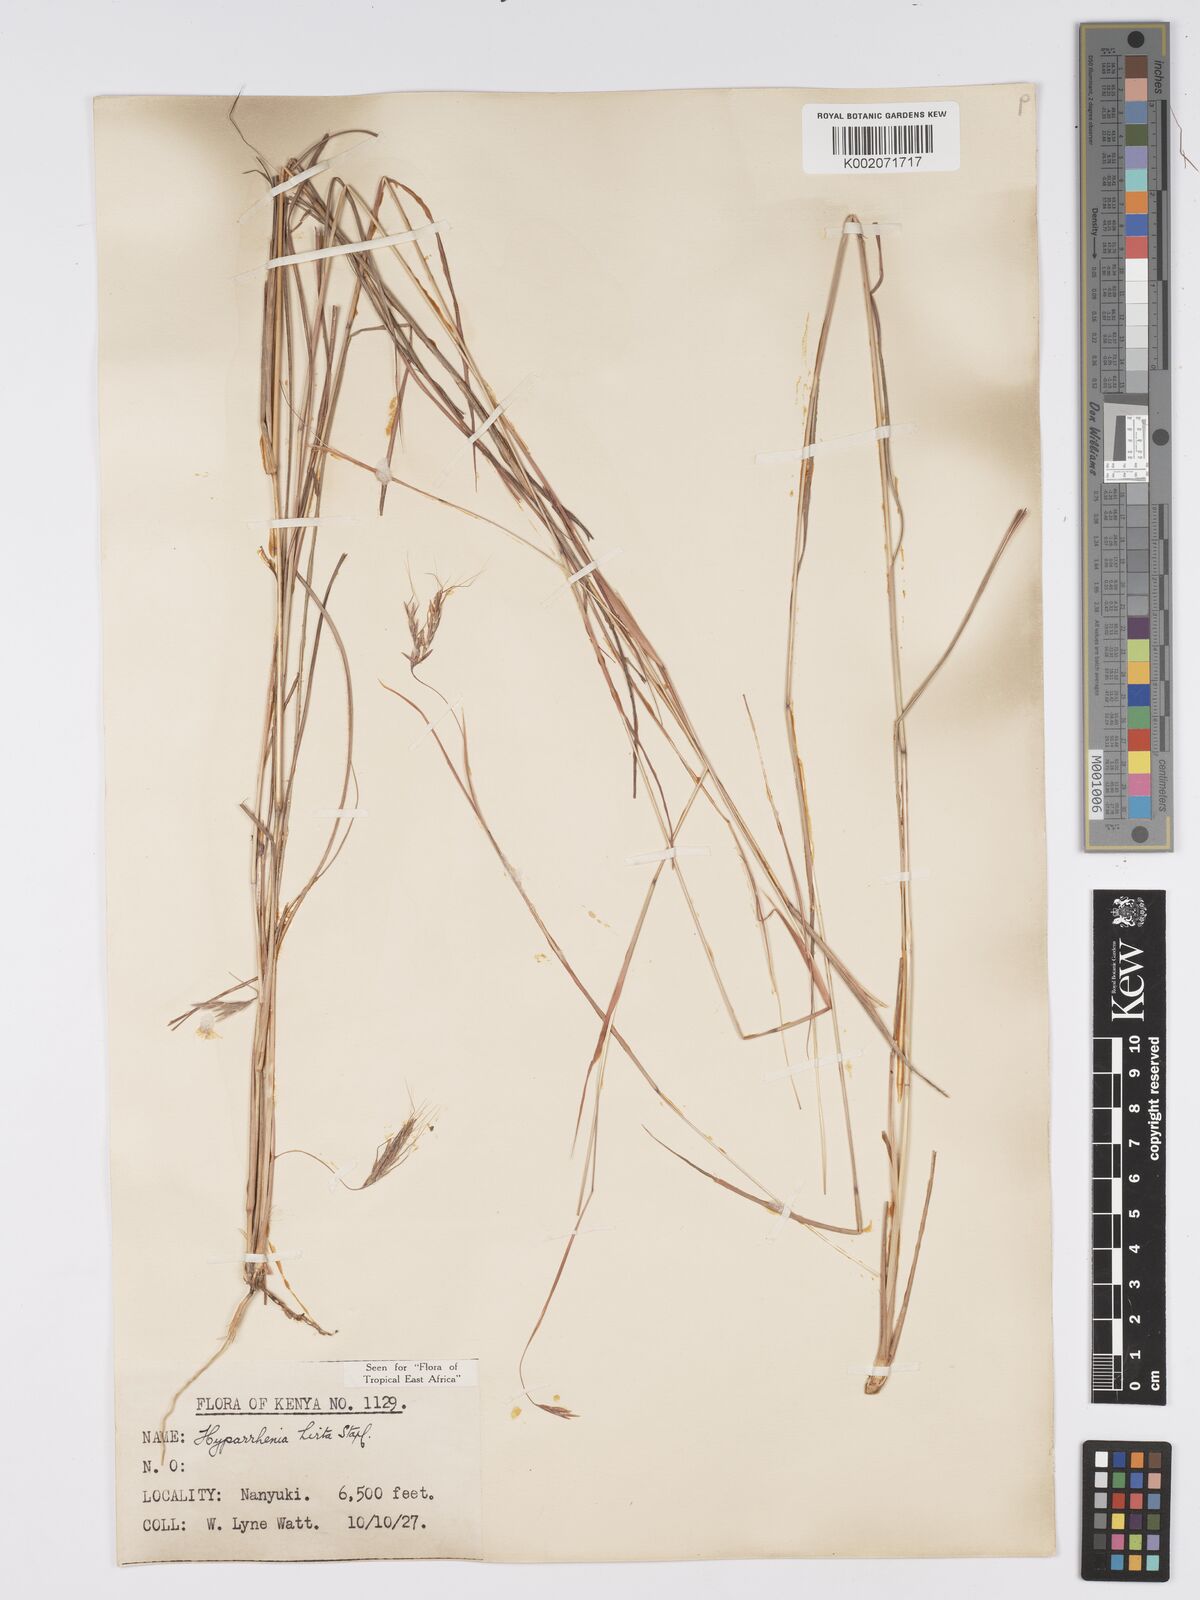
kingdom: Plantae
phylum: Tracheophyta
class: Liliopsida
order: Poales
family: Poaceae
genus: Hyparrhenia
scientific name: Hyparrhenia hirta
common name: Thatching grass
